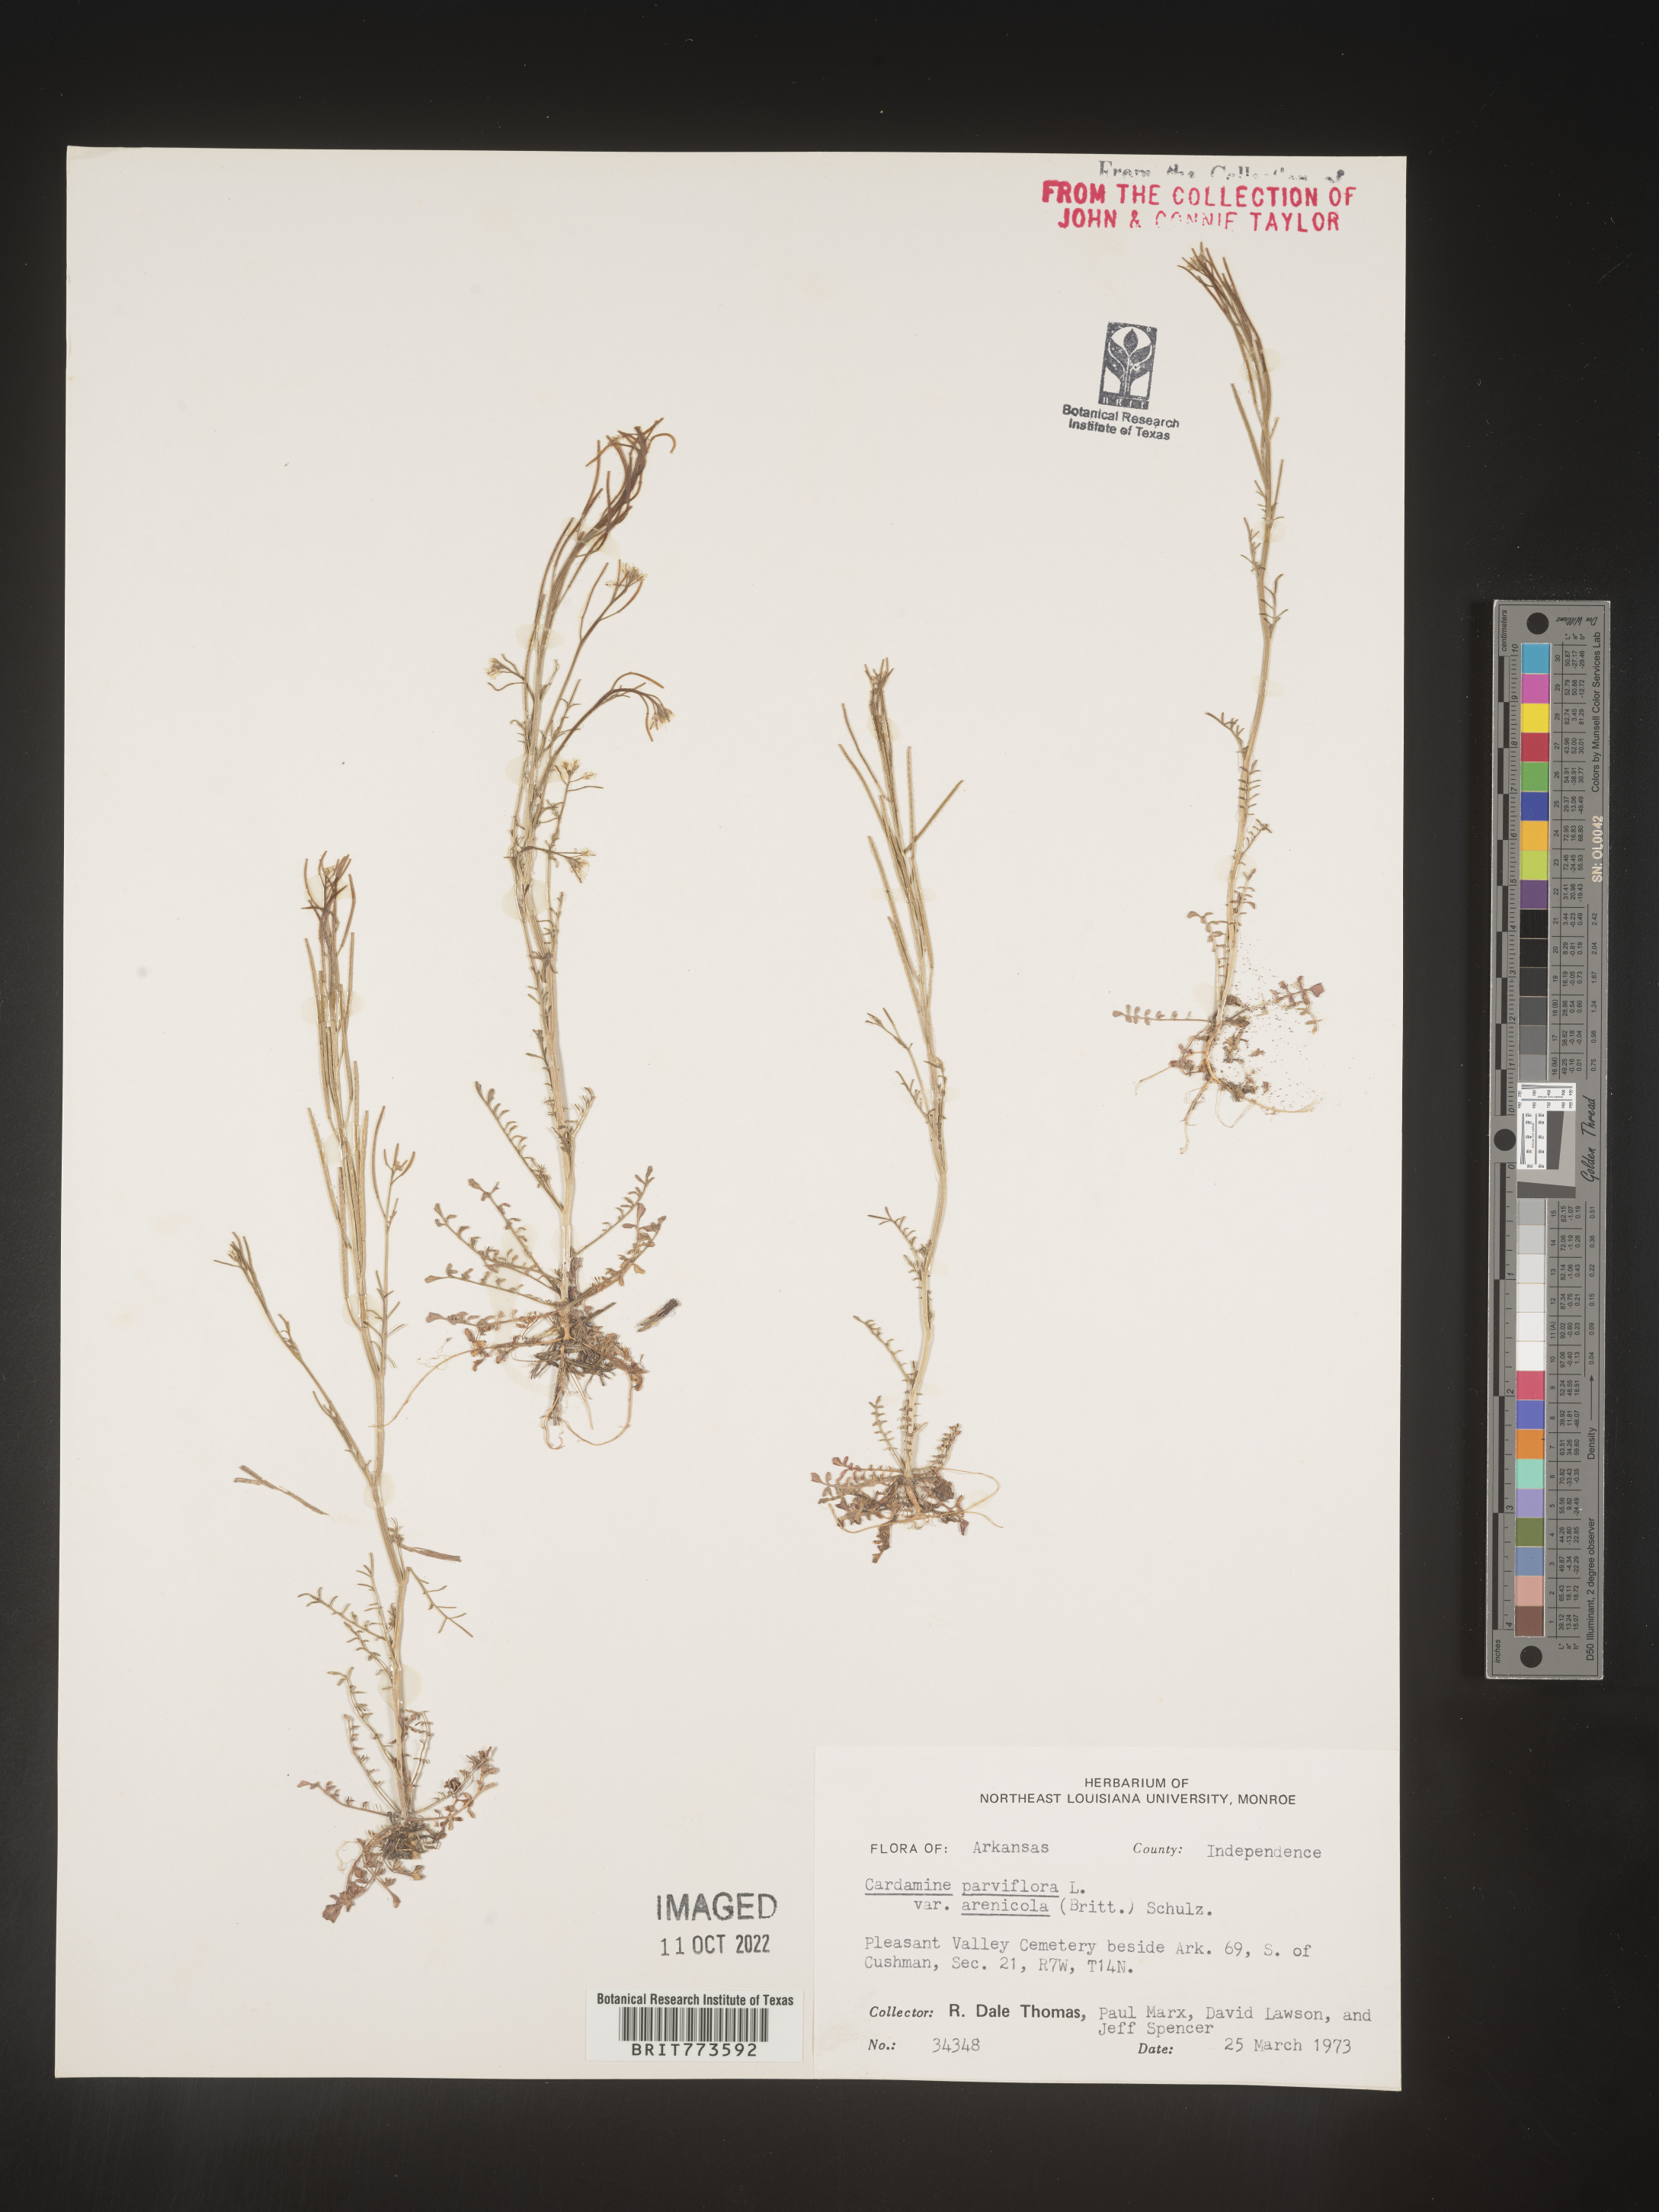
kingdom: Plantae
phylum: Tracheophyta
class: Magnoliopsida
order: Brassicales
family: Brassicaceae
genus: Cardamine
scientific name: Cardamine parviflora
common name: Sand bittercress
